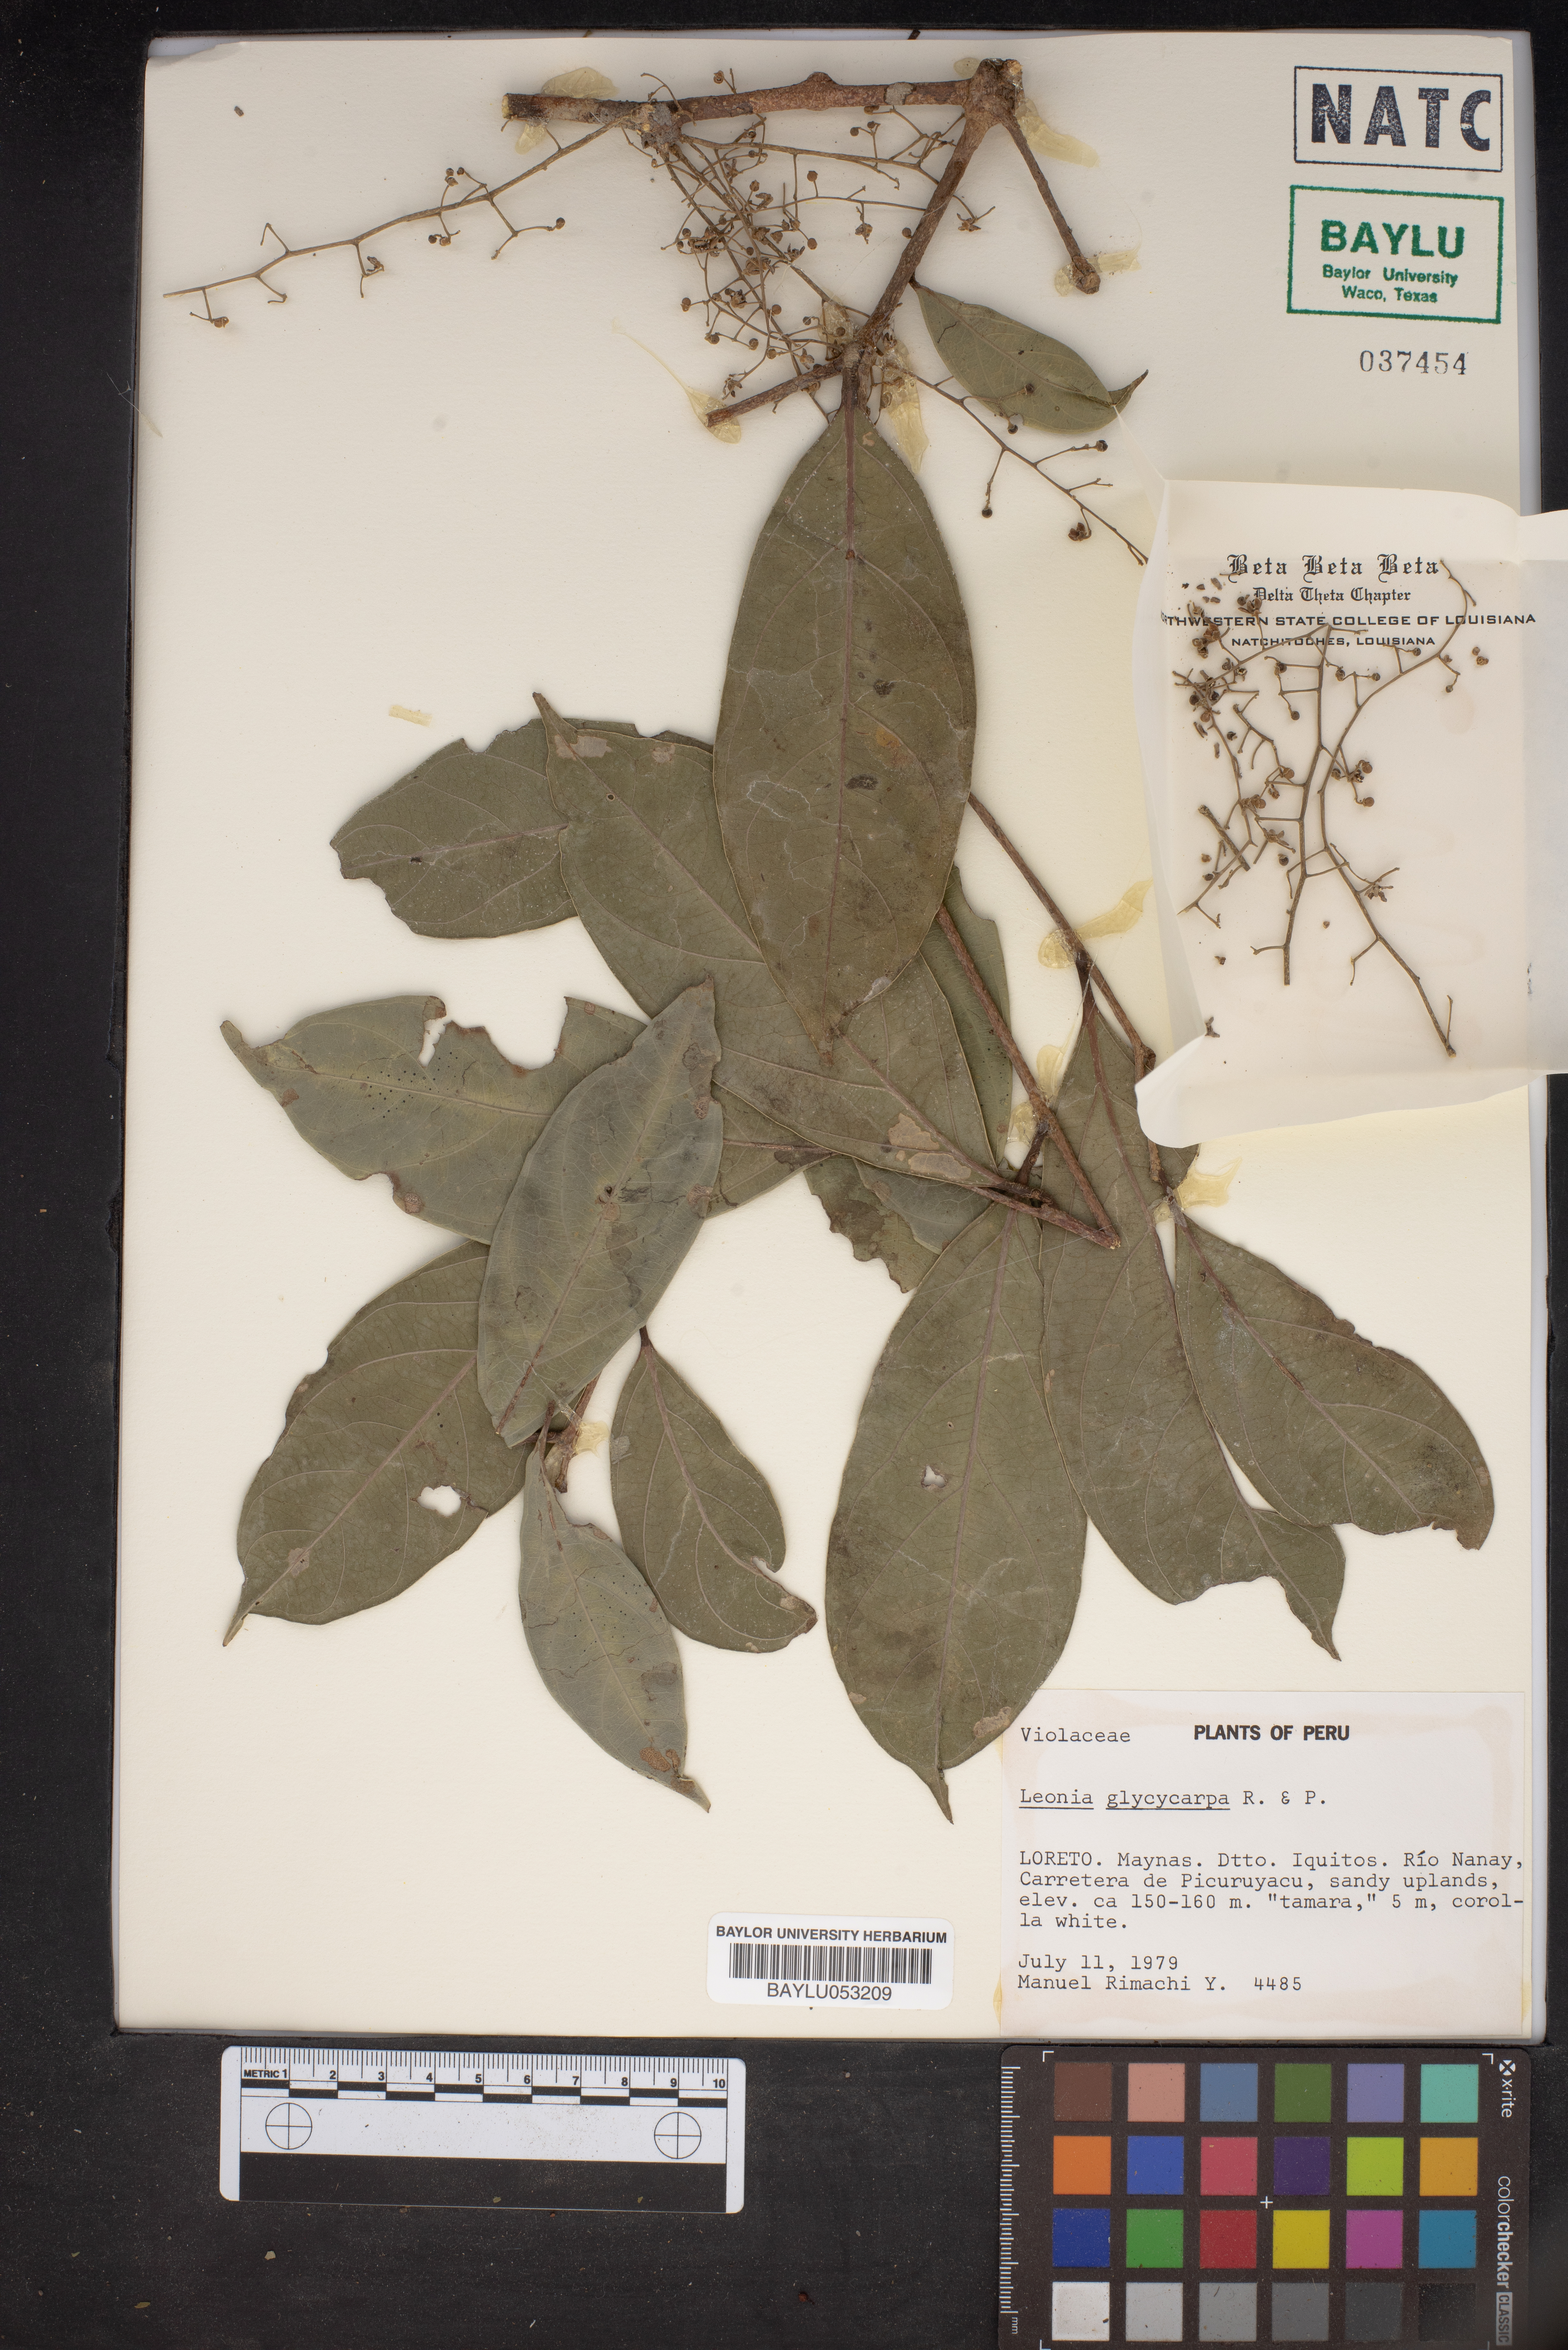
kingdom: Plantae
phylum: Tracheophyta
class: Magnoliopsida
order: Malpighiales
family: Violaceae
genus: Leonia
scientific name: Leonia glycycarpa
